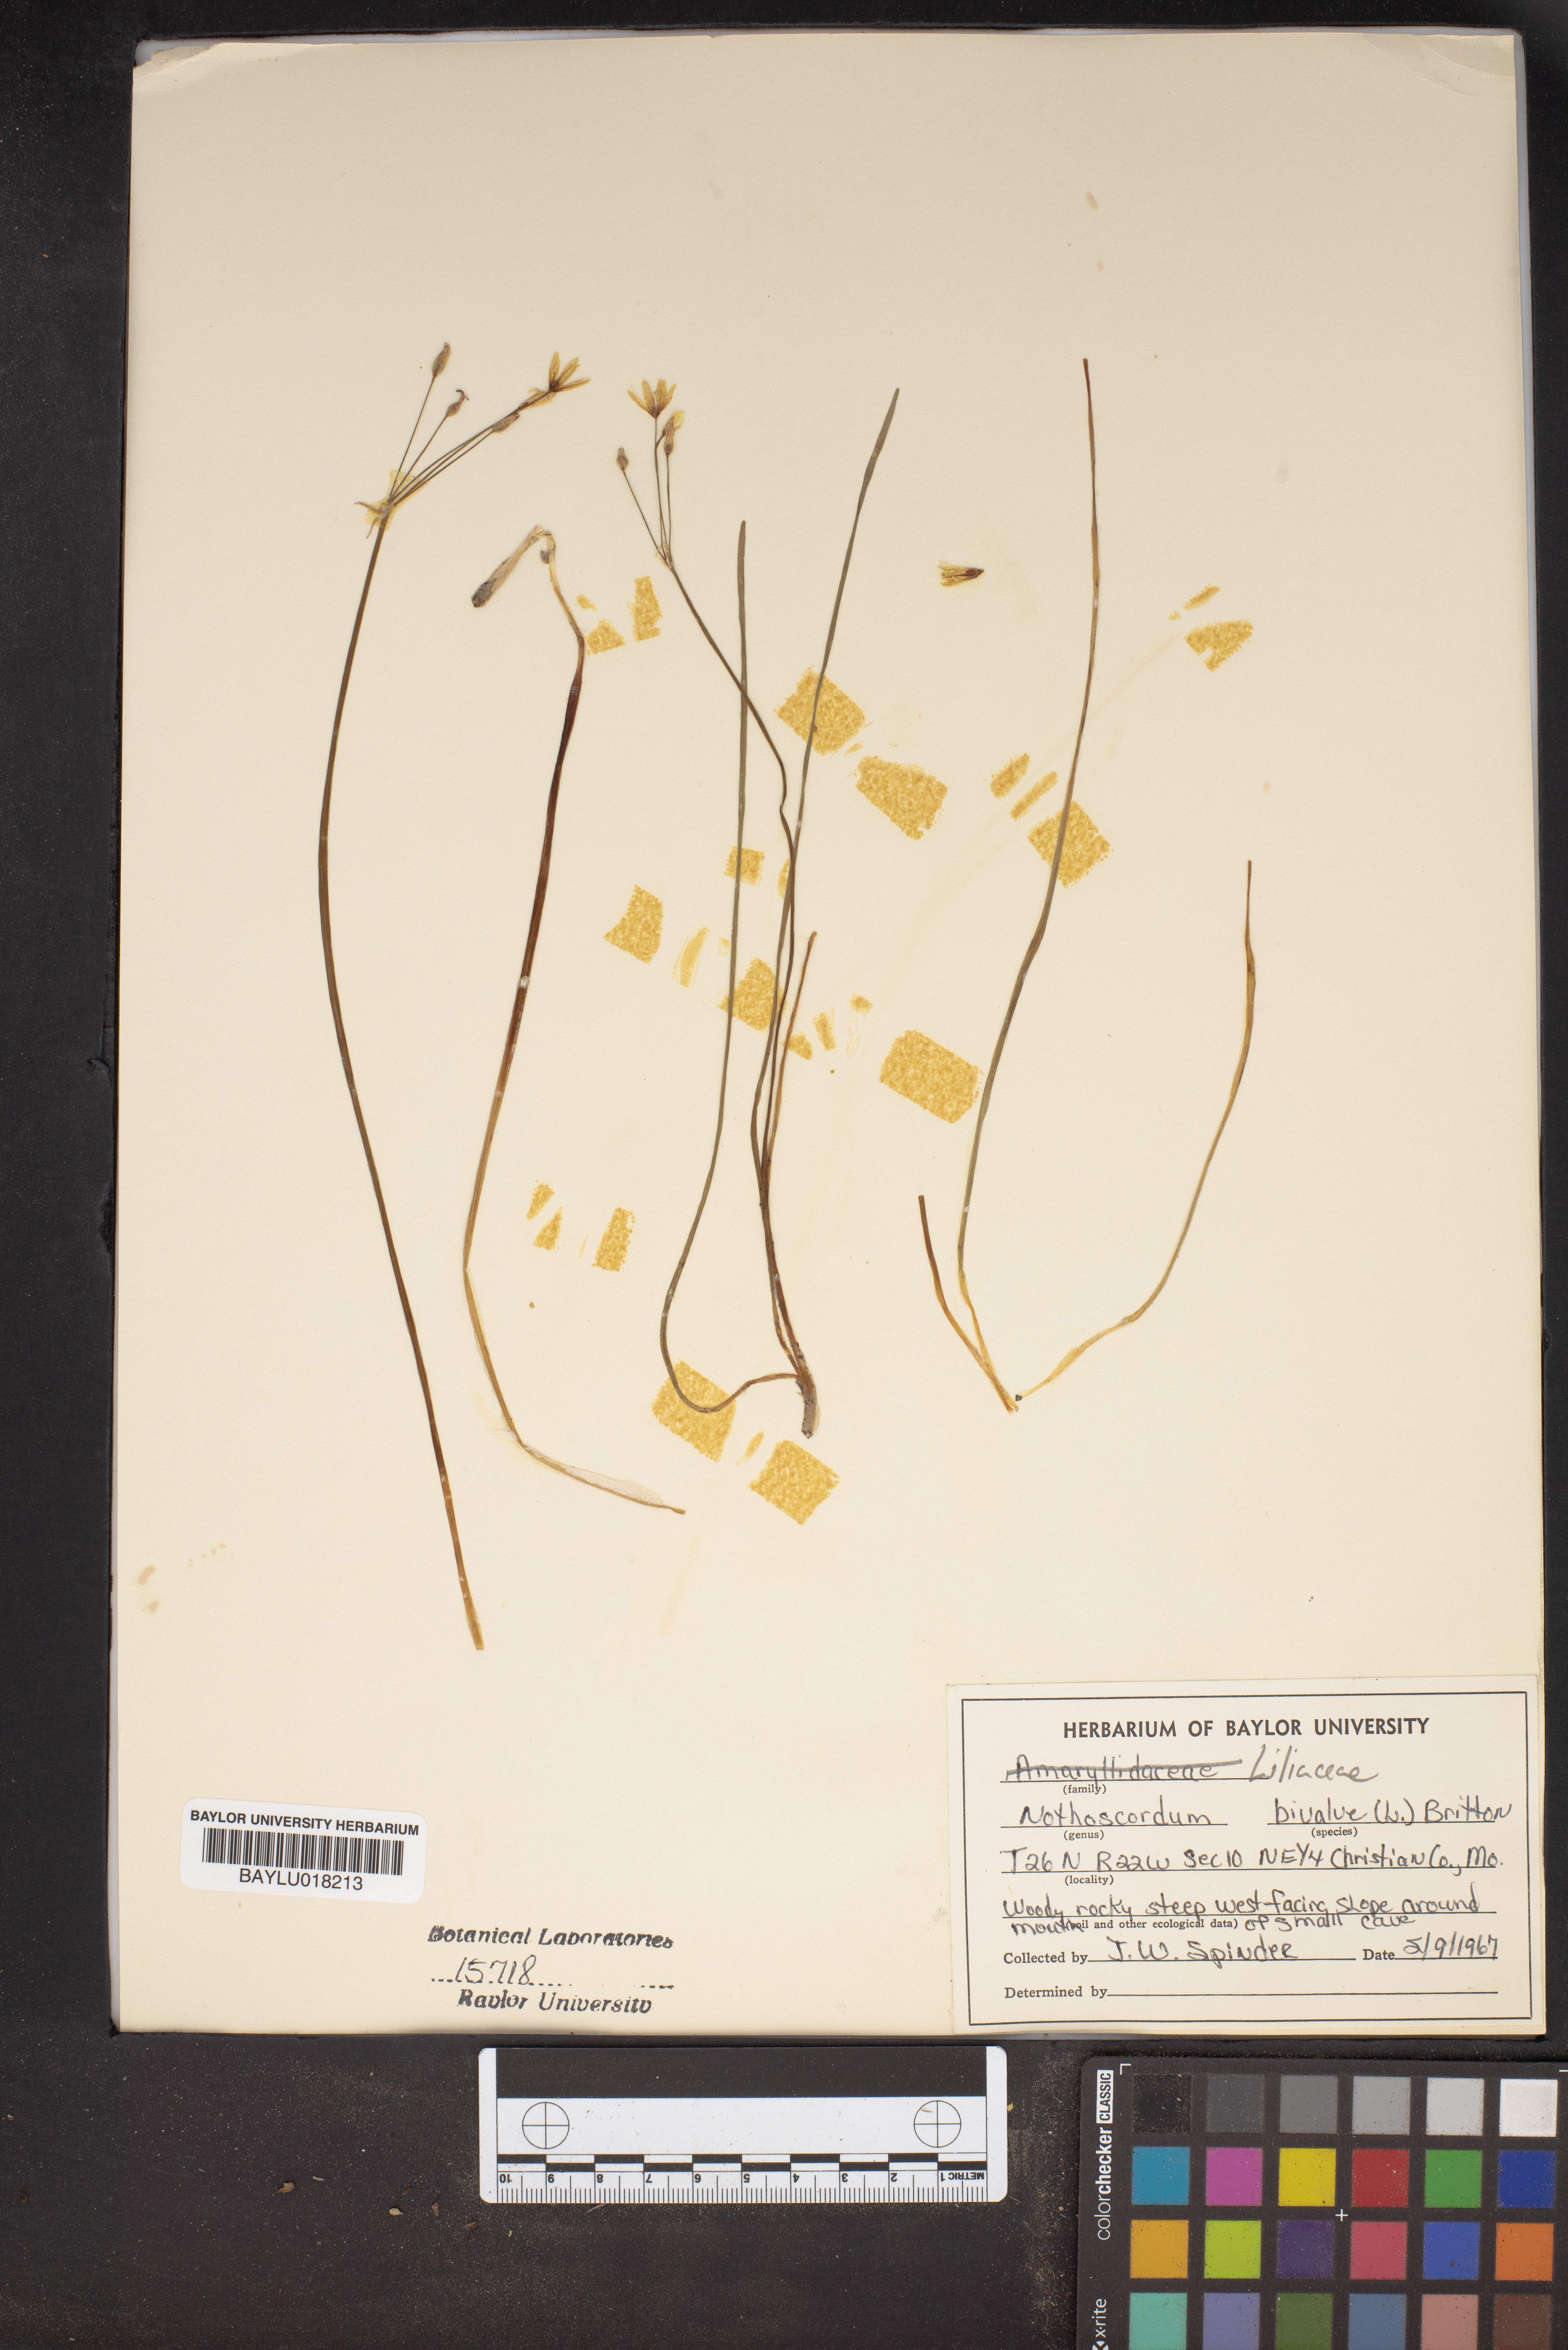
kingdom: Plantae
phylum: Tracheophyta
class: Liliopsida
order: Asparagales
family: Amaryllidaceae
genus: Nothoscordum
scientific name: Nothoscordum bivalve
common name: Crow-poison
